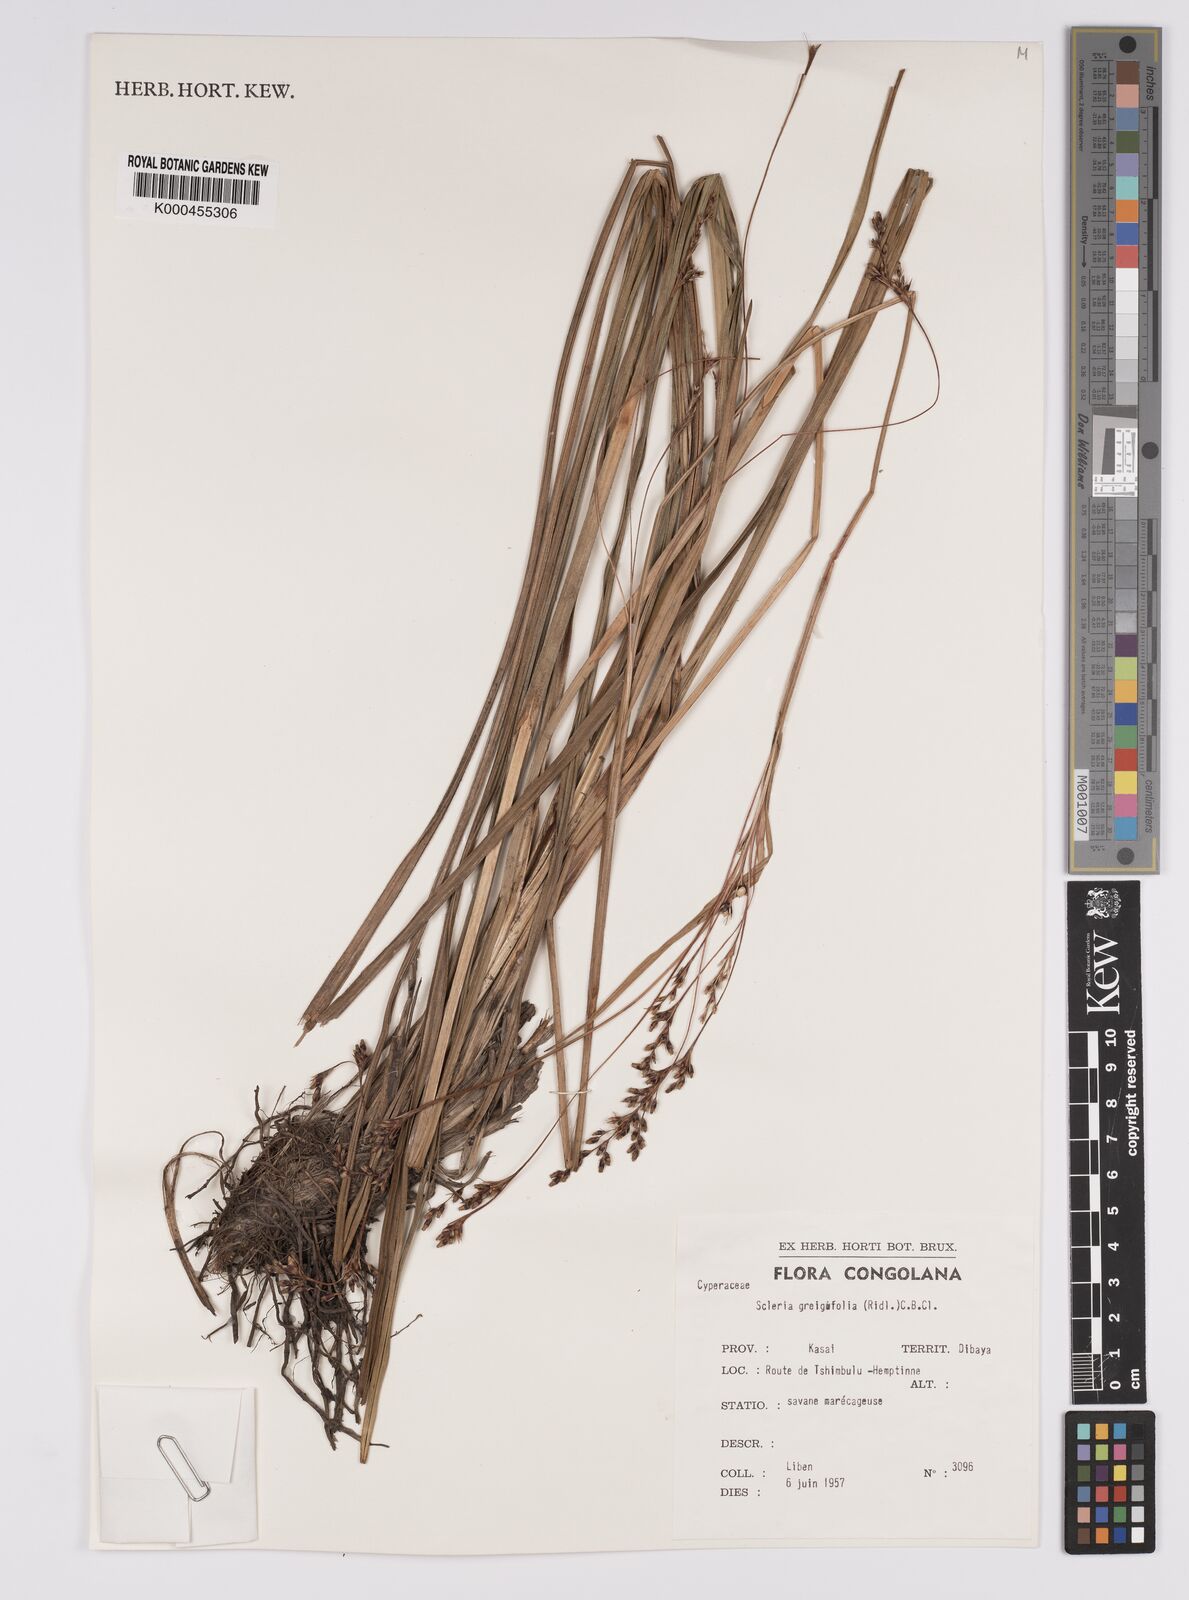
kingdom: Plantae
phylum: Tracheophyta
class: Liliopsida
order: Poales
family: Cyperaceae
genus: Scleria
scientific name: Scleria greigiifolia
